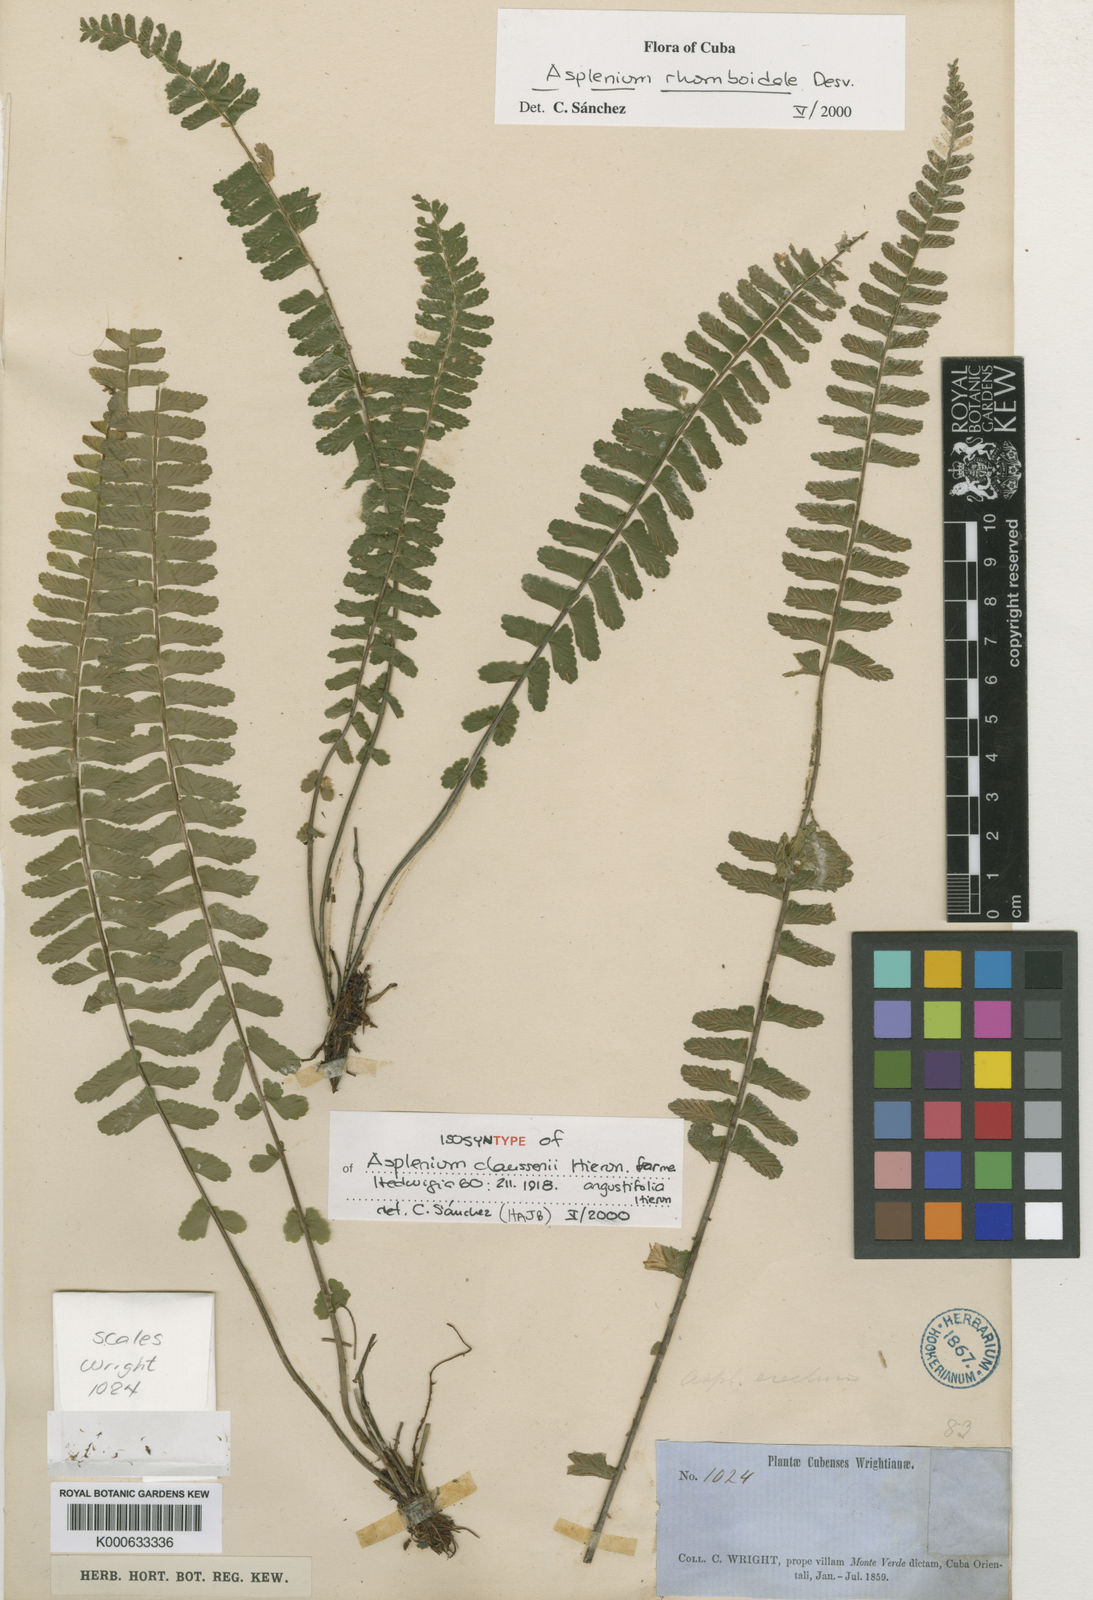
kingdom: Plantae
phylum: Tracheophyta
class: Polypodiopsida
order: Polypodiales
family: Aspleniaceae
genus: Asplenium
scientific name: Asplenium claussenii
